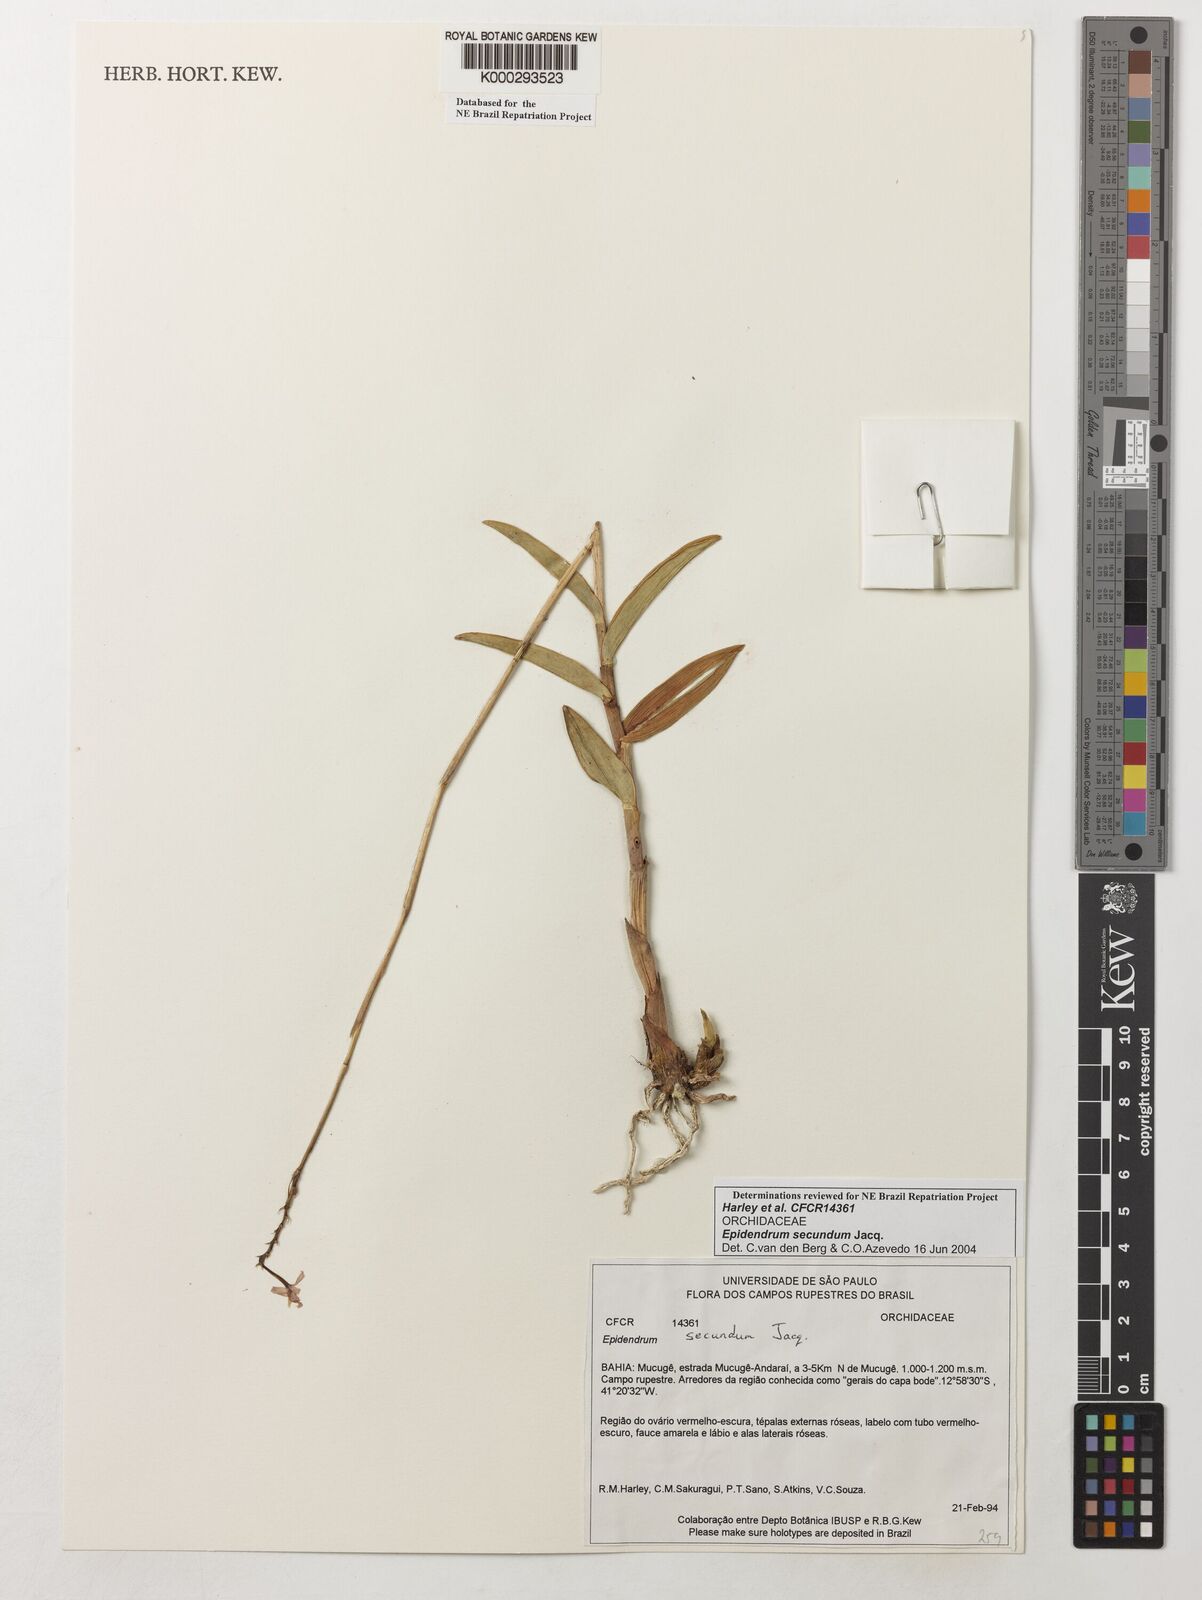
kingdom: Plantae
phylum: Tracheophyta
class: Liliopsida
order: Asparagales
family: Orchidaceae
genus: Epidendrum
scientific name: Epidendrum secundum
